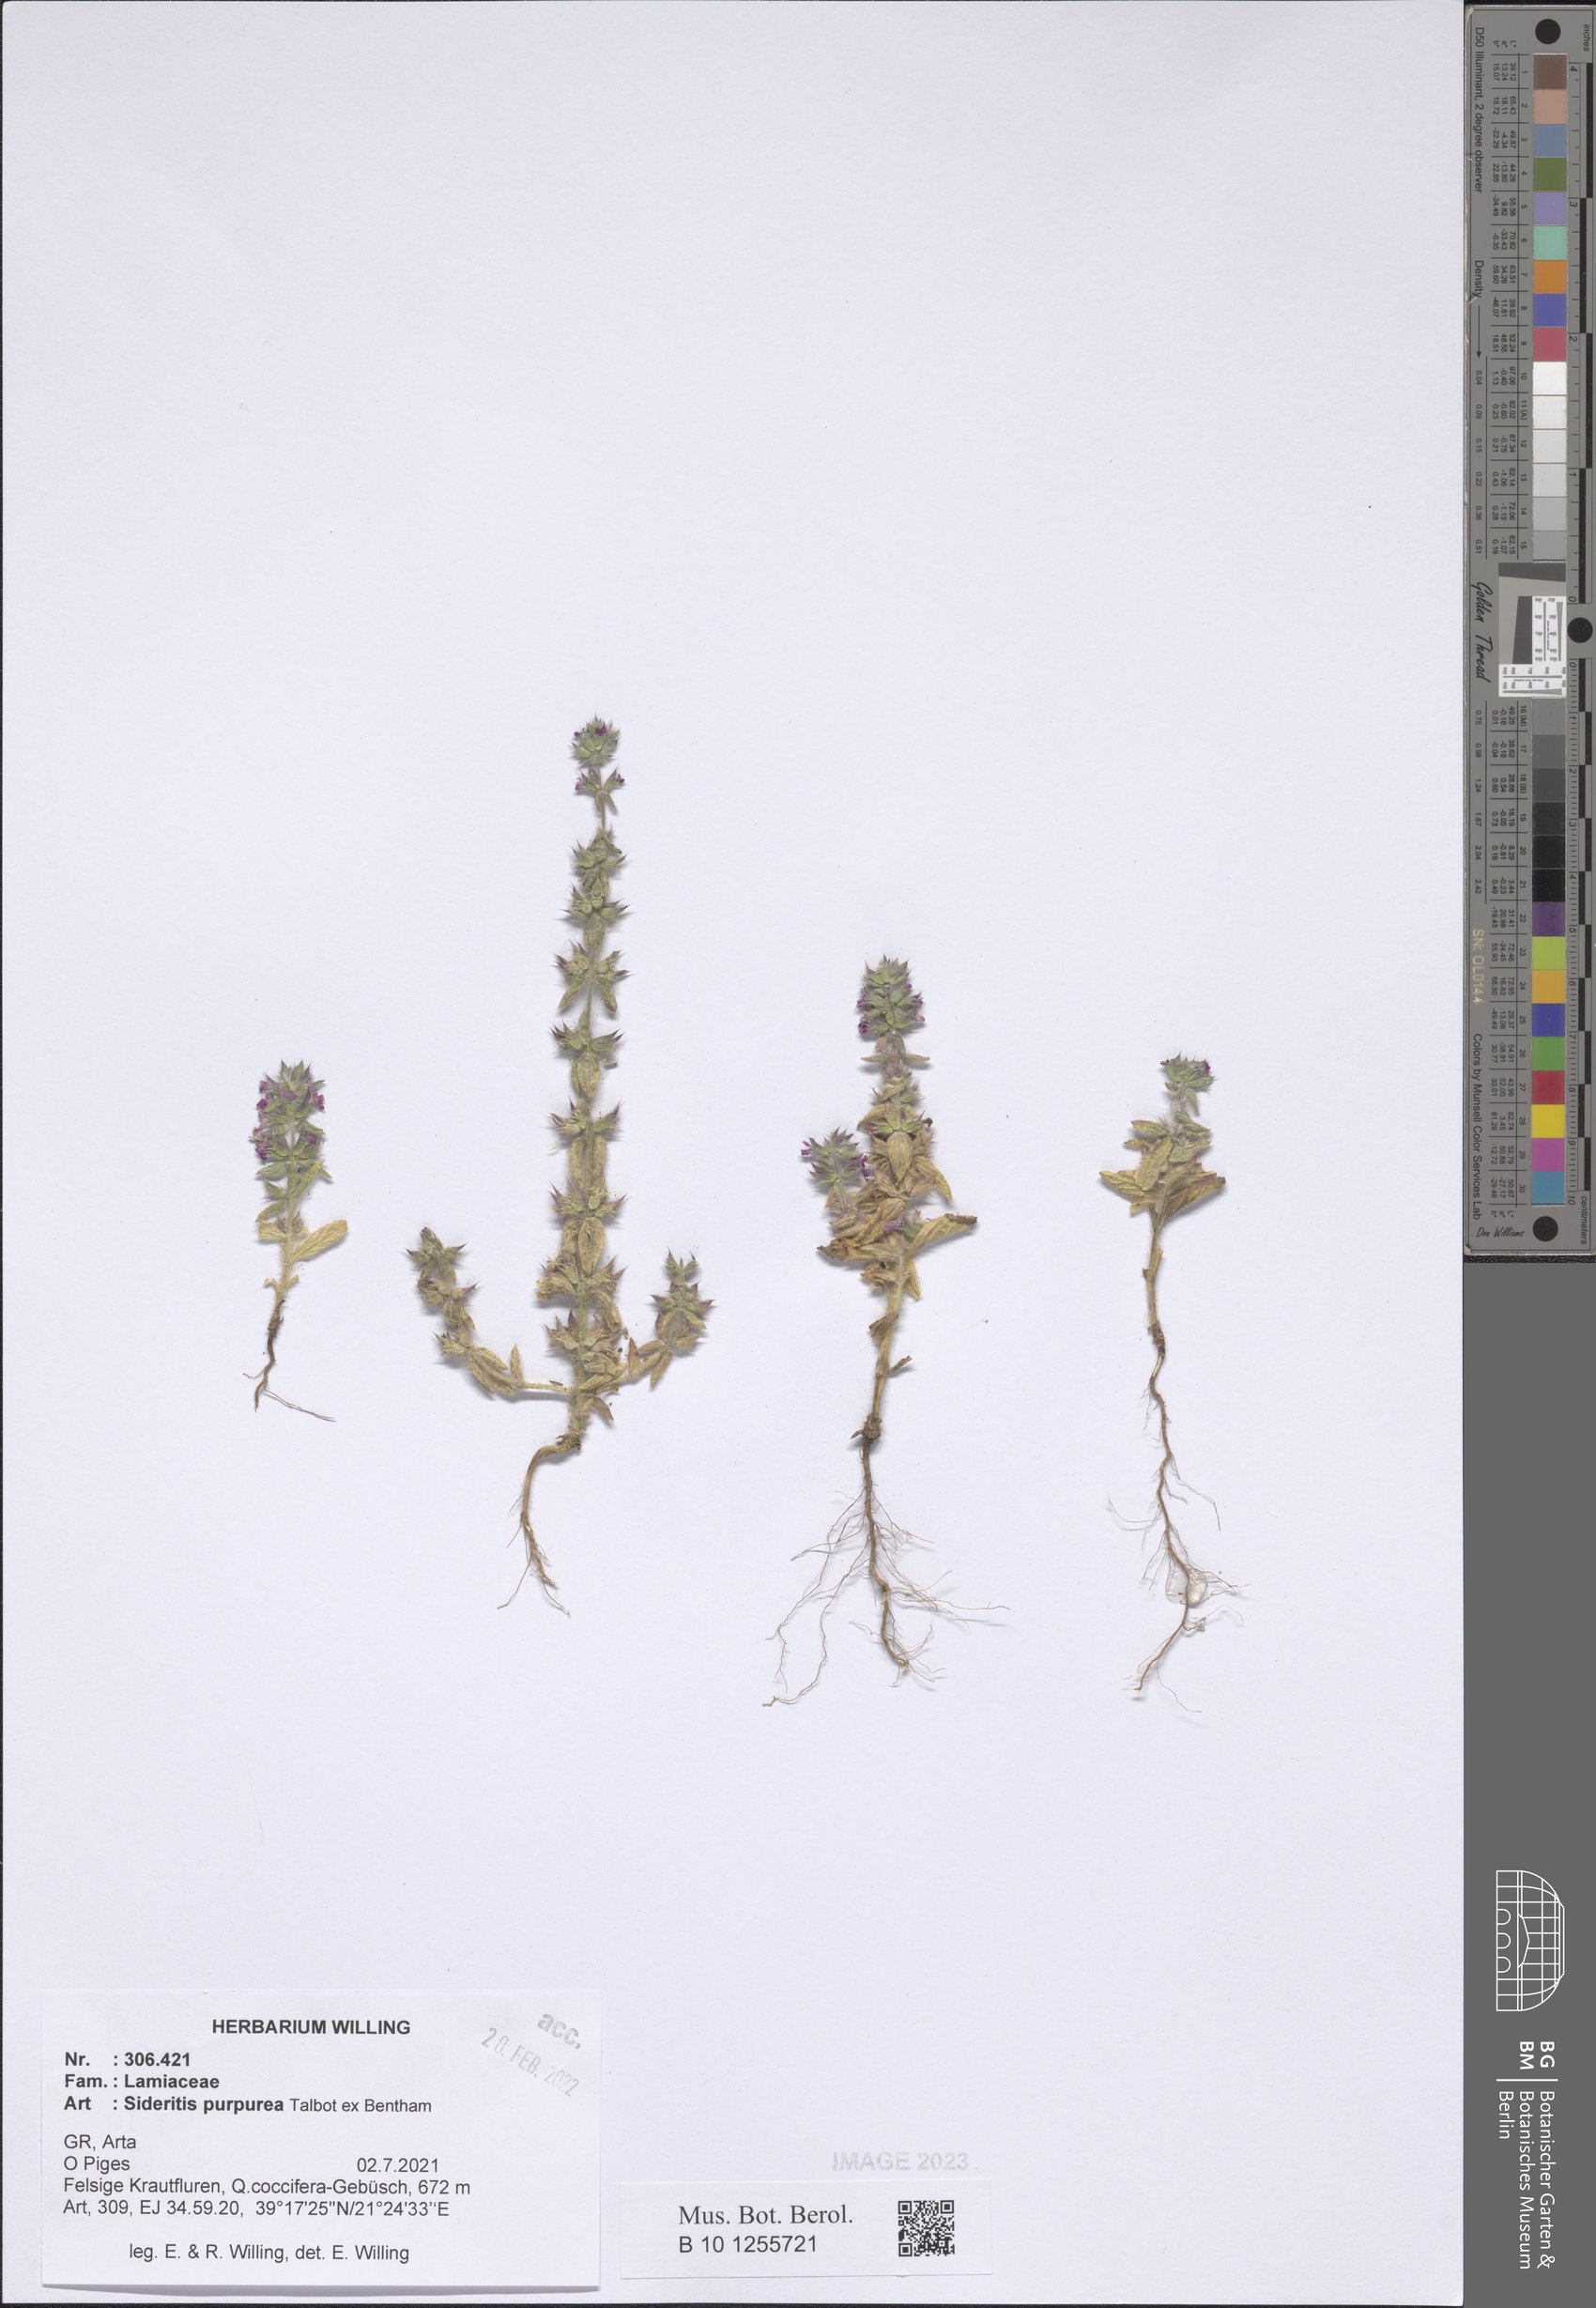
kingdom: Plantae
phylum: Tracheophyta
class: Magnoliopsida
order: Lamiales
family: Lamiaceae
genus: Sideritis
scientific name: Sideritis romana
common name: Simplebeak ironwort
